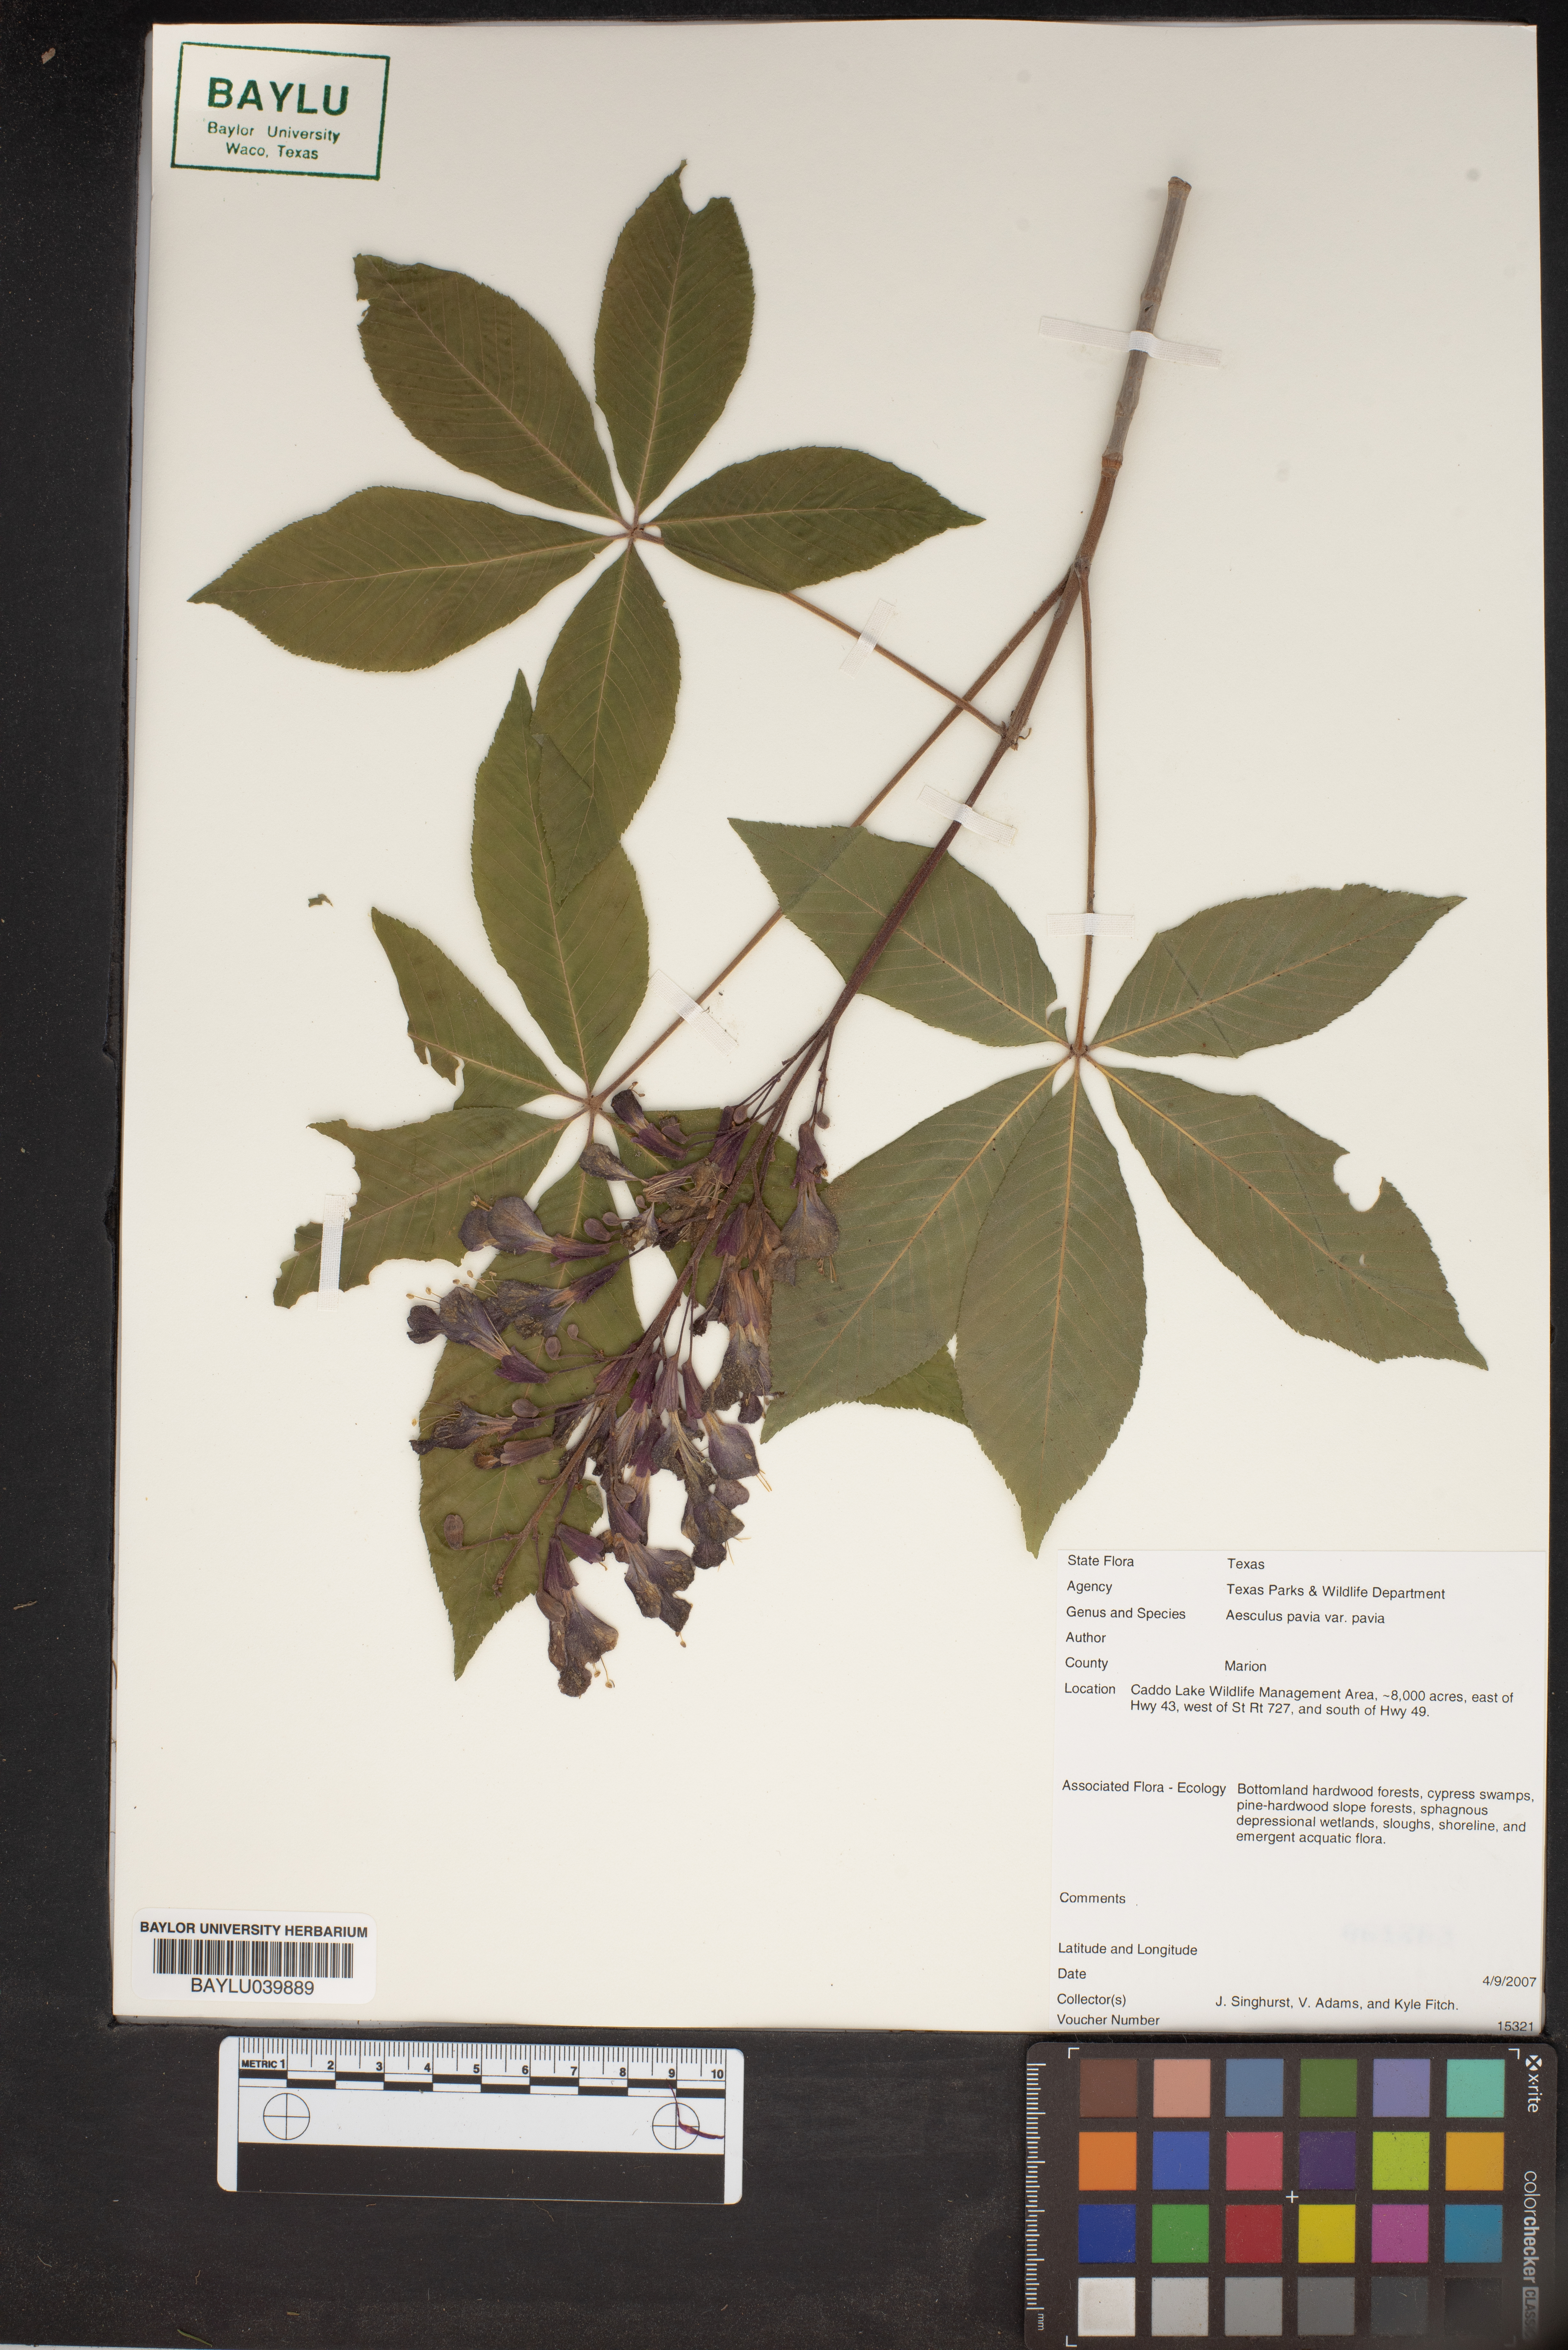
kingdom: Plantae
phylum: Tracheophyta
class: Magnoliopsida
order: Sapindales
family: Sapindaceae
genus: Aesculus
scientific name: Aesculus pavia
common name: Red buckeye
